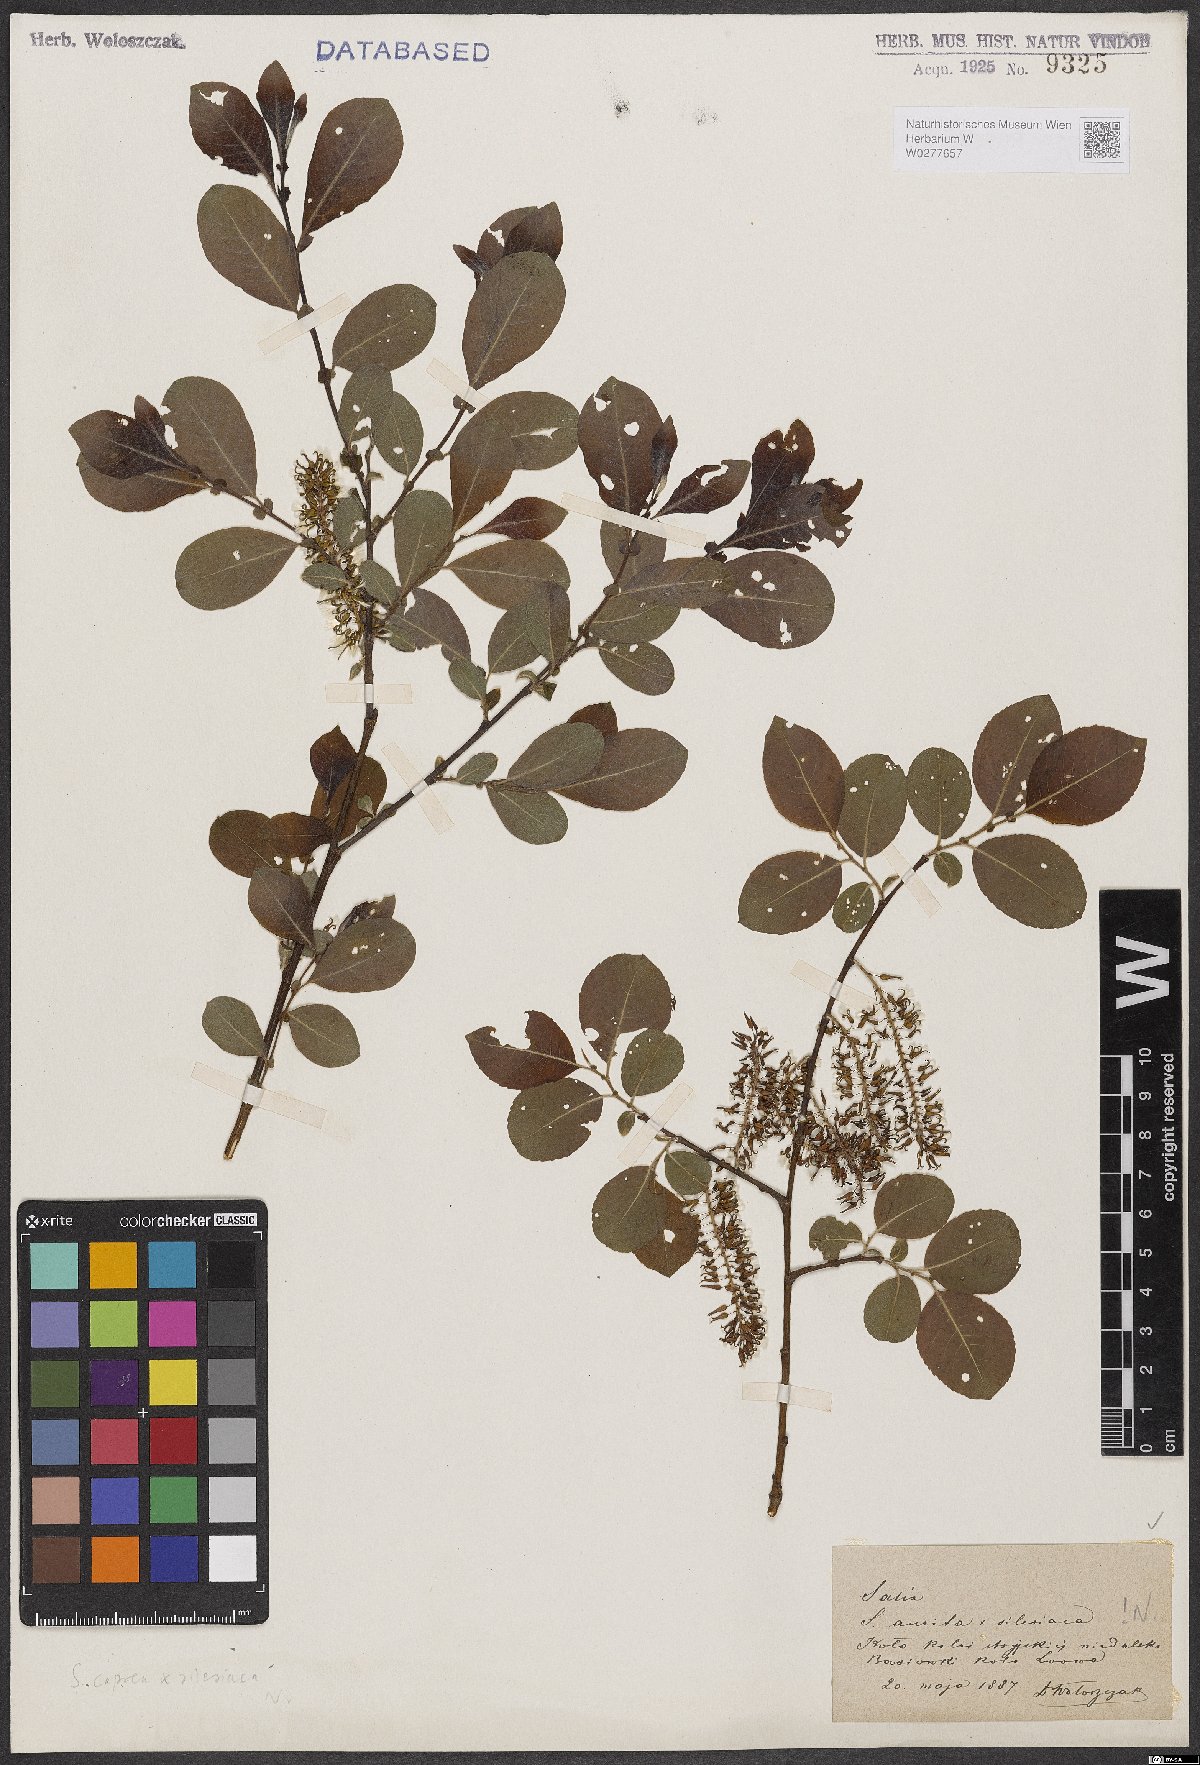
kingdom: Plantae
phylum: Tracheophyta
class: Magnoliopsida
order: Malpighiales
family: Salicaceae
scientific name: Salicaceae
